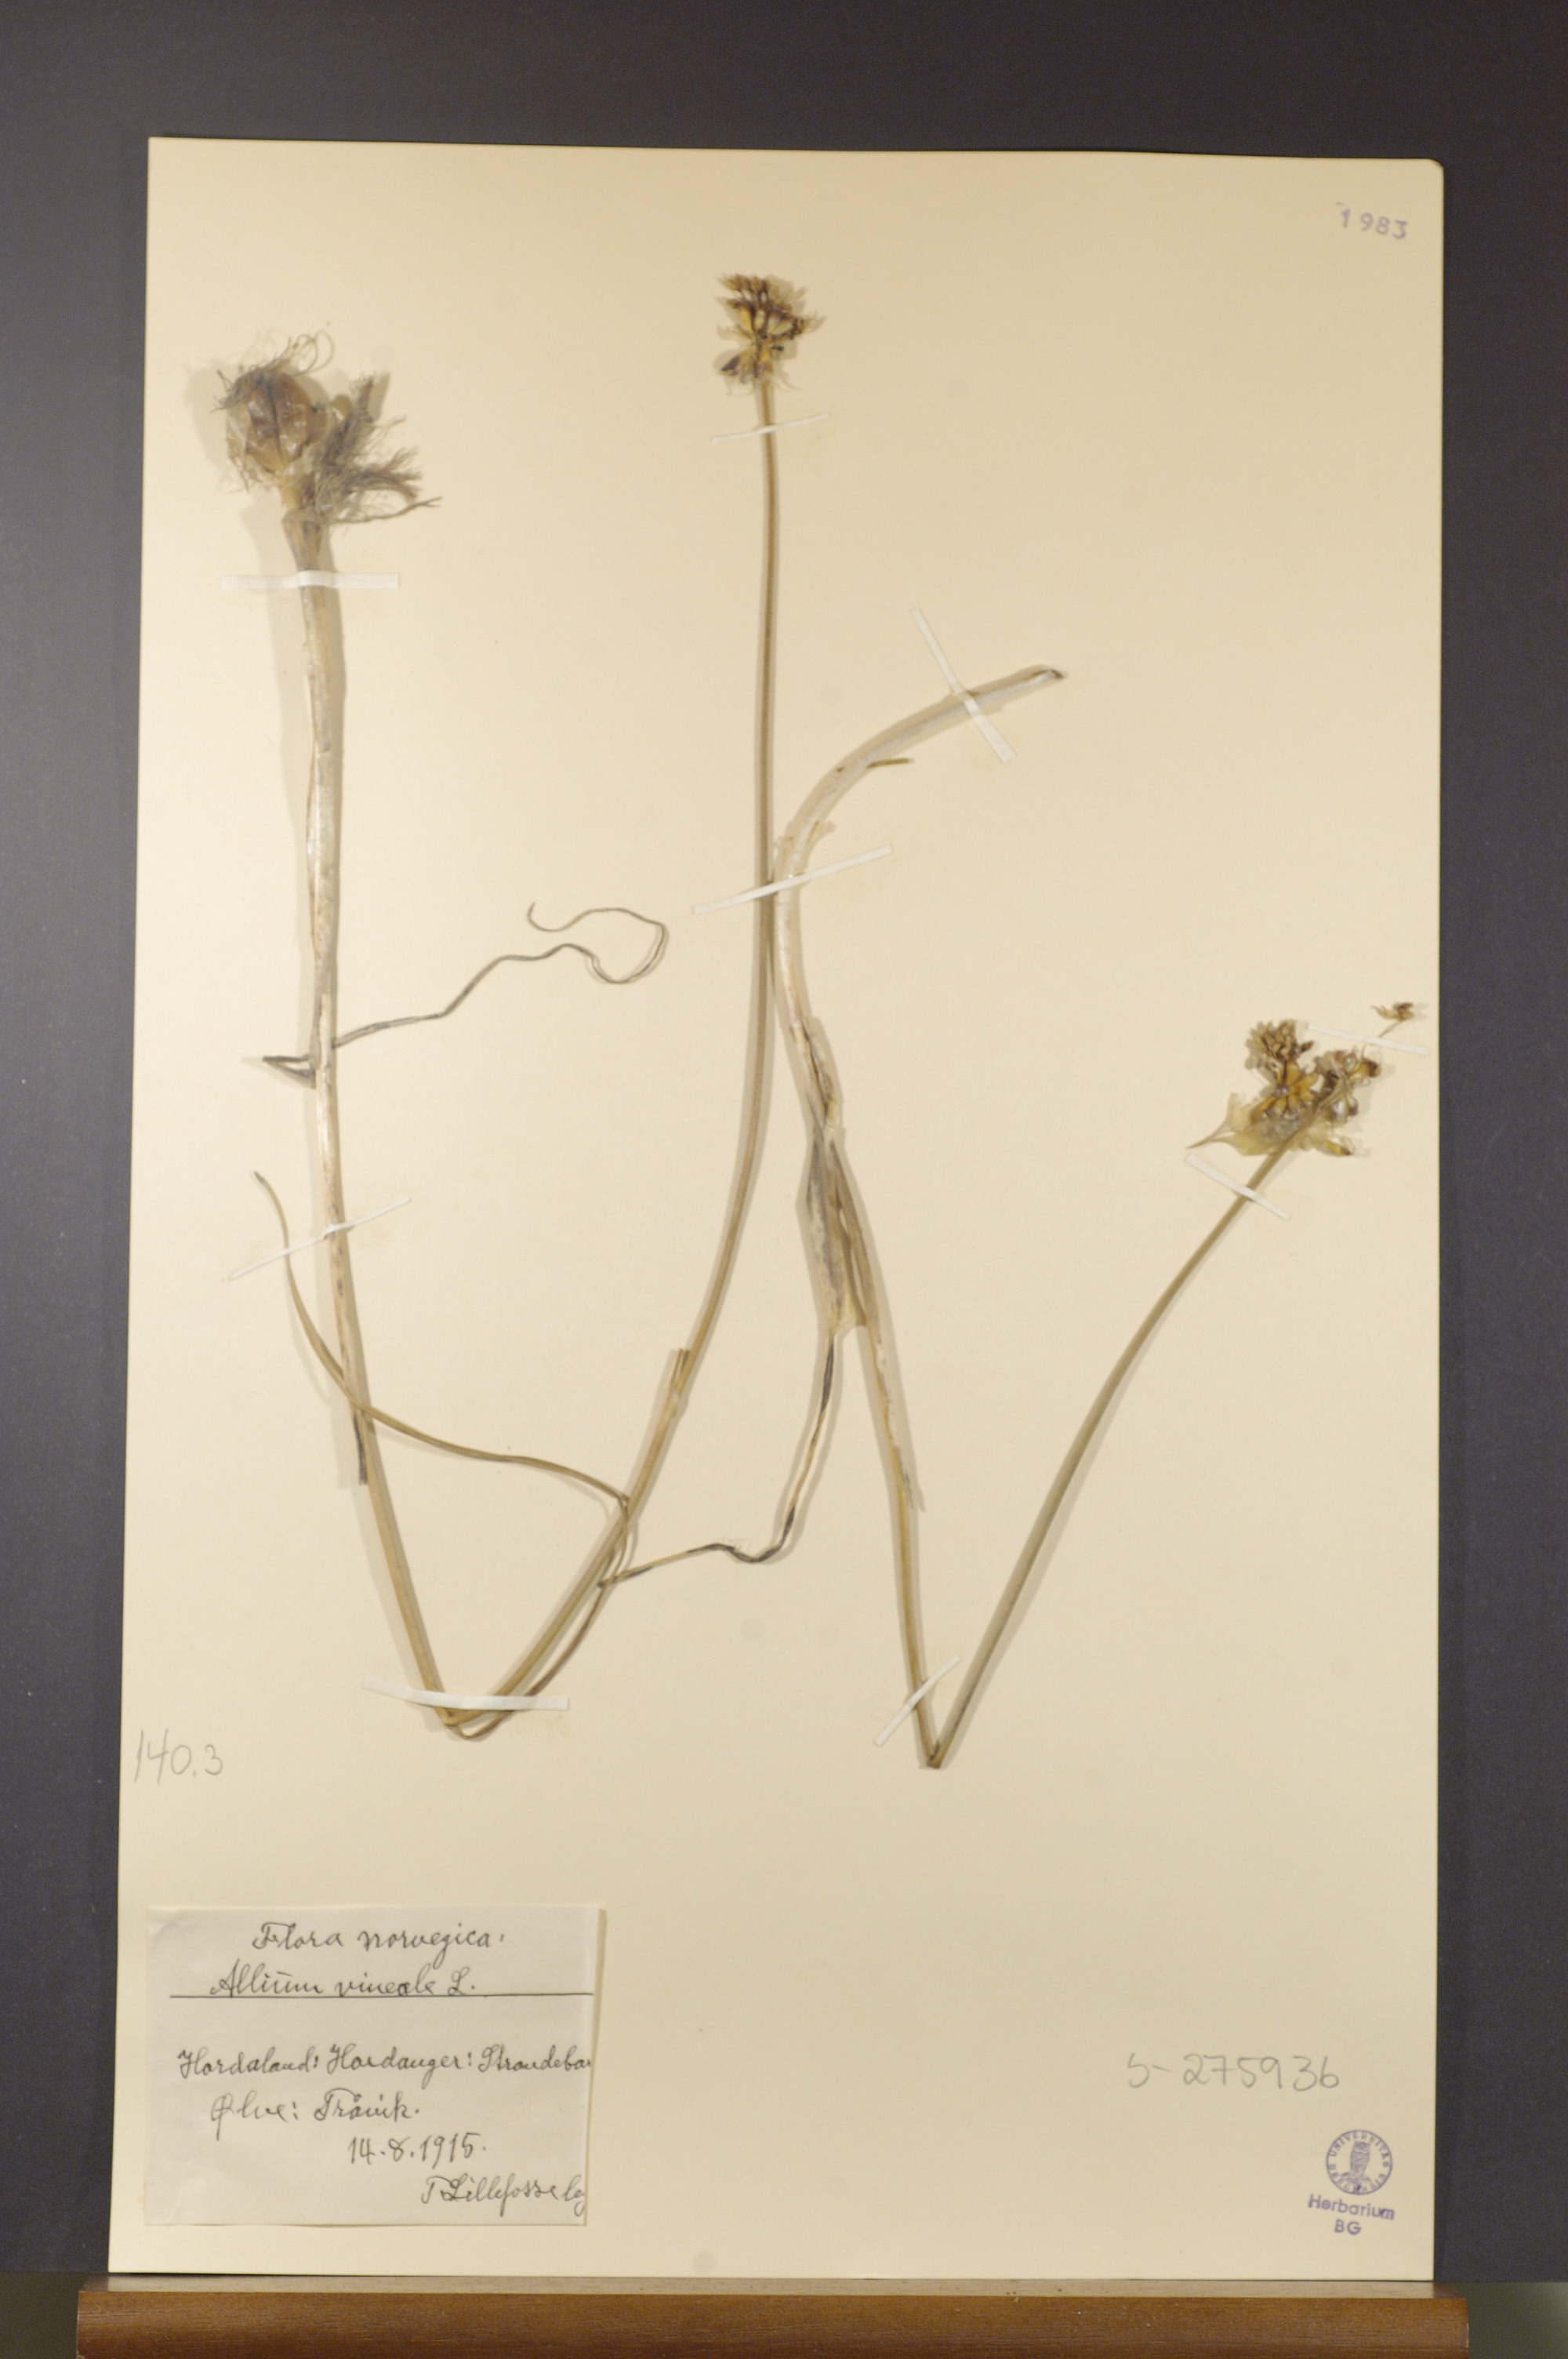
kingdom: Plantae
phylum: Tracheophyta
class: Liliopsida
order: Asparagales
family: Amaryllidaceae
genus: Allium
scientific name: Allium vineale
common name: Crow garlic
